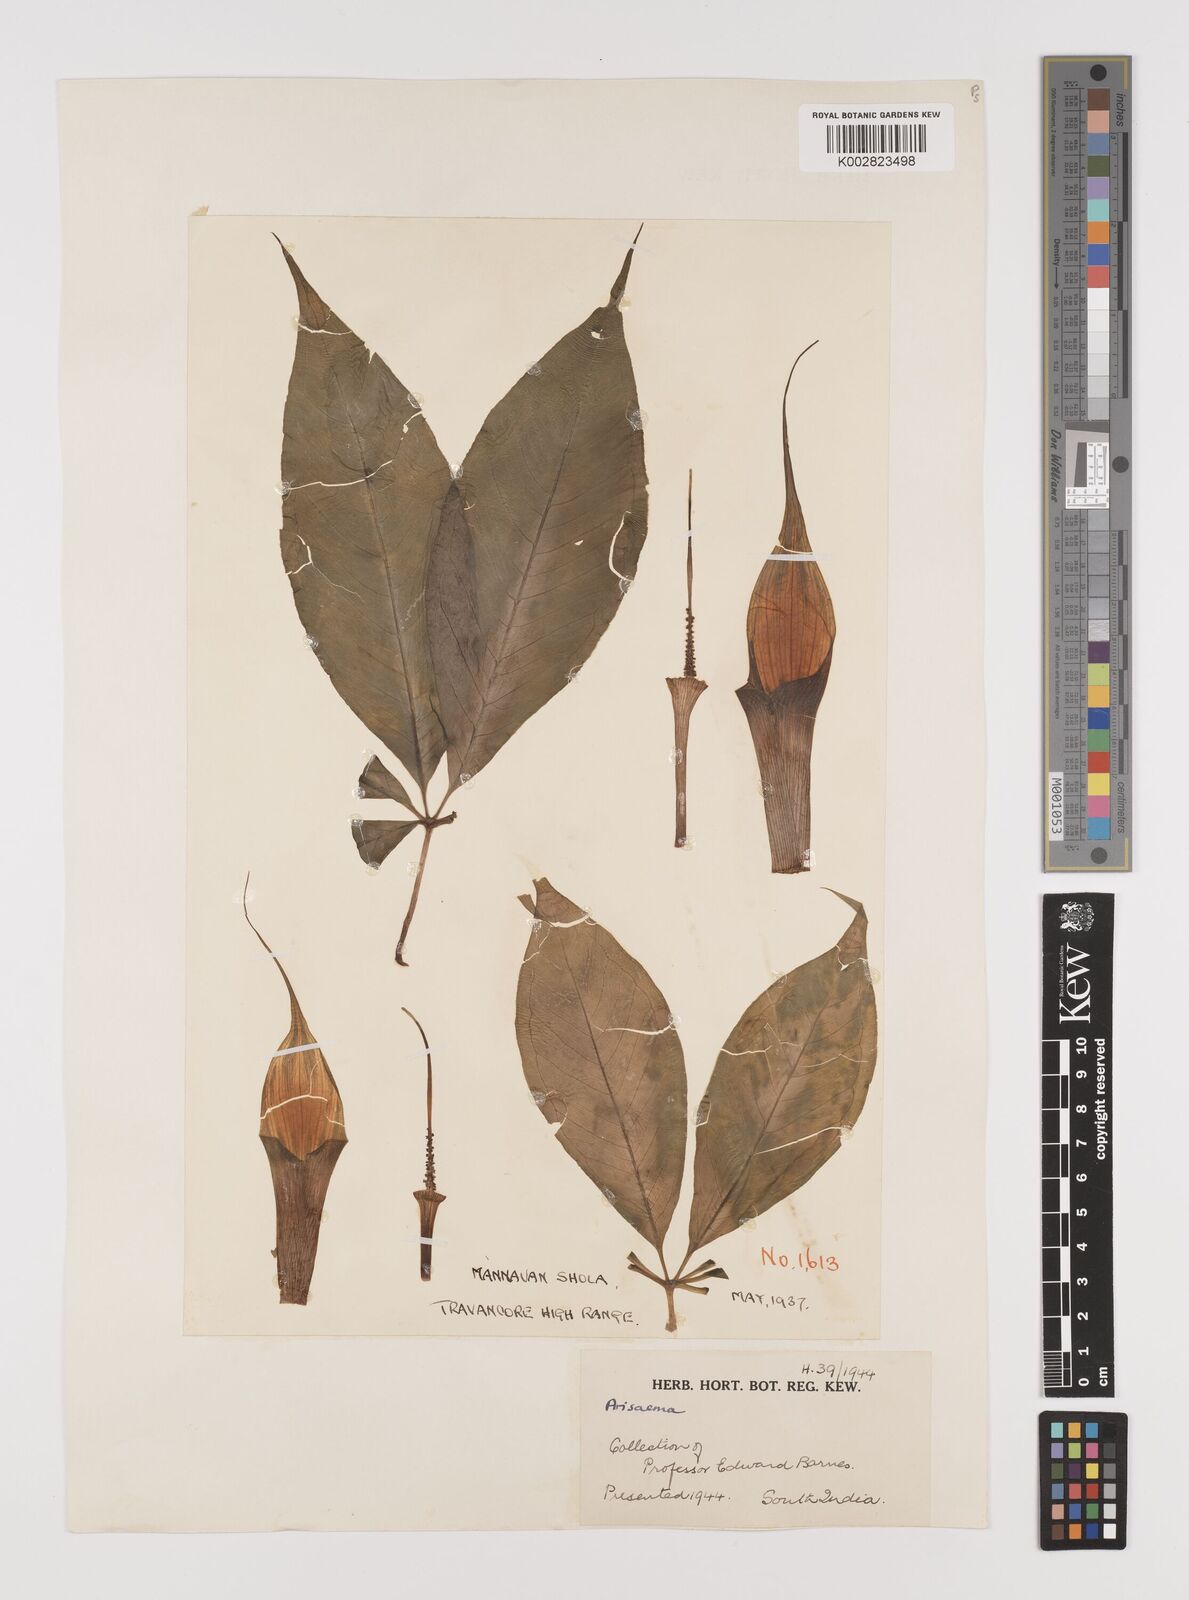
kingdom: Plantae
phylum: Tracheophyta
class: Liliopsida
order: Alismatales
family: Araceae
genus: Arisaema
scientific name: Arisaema
